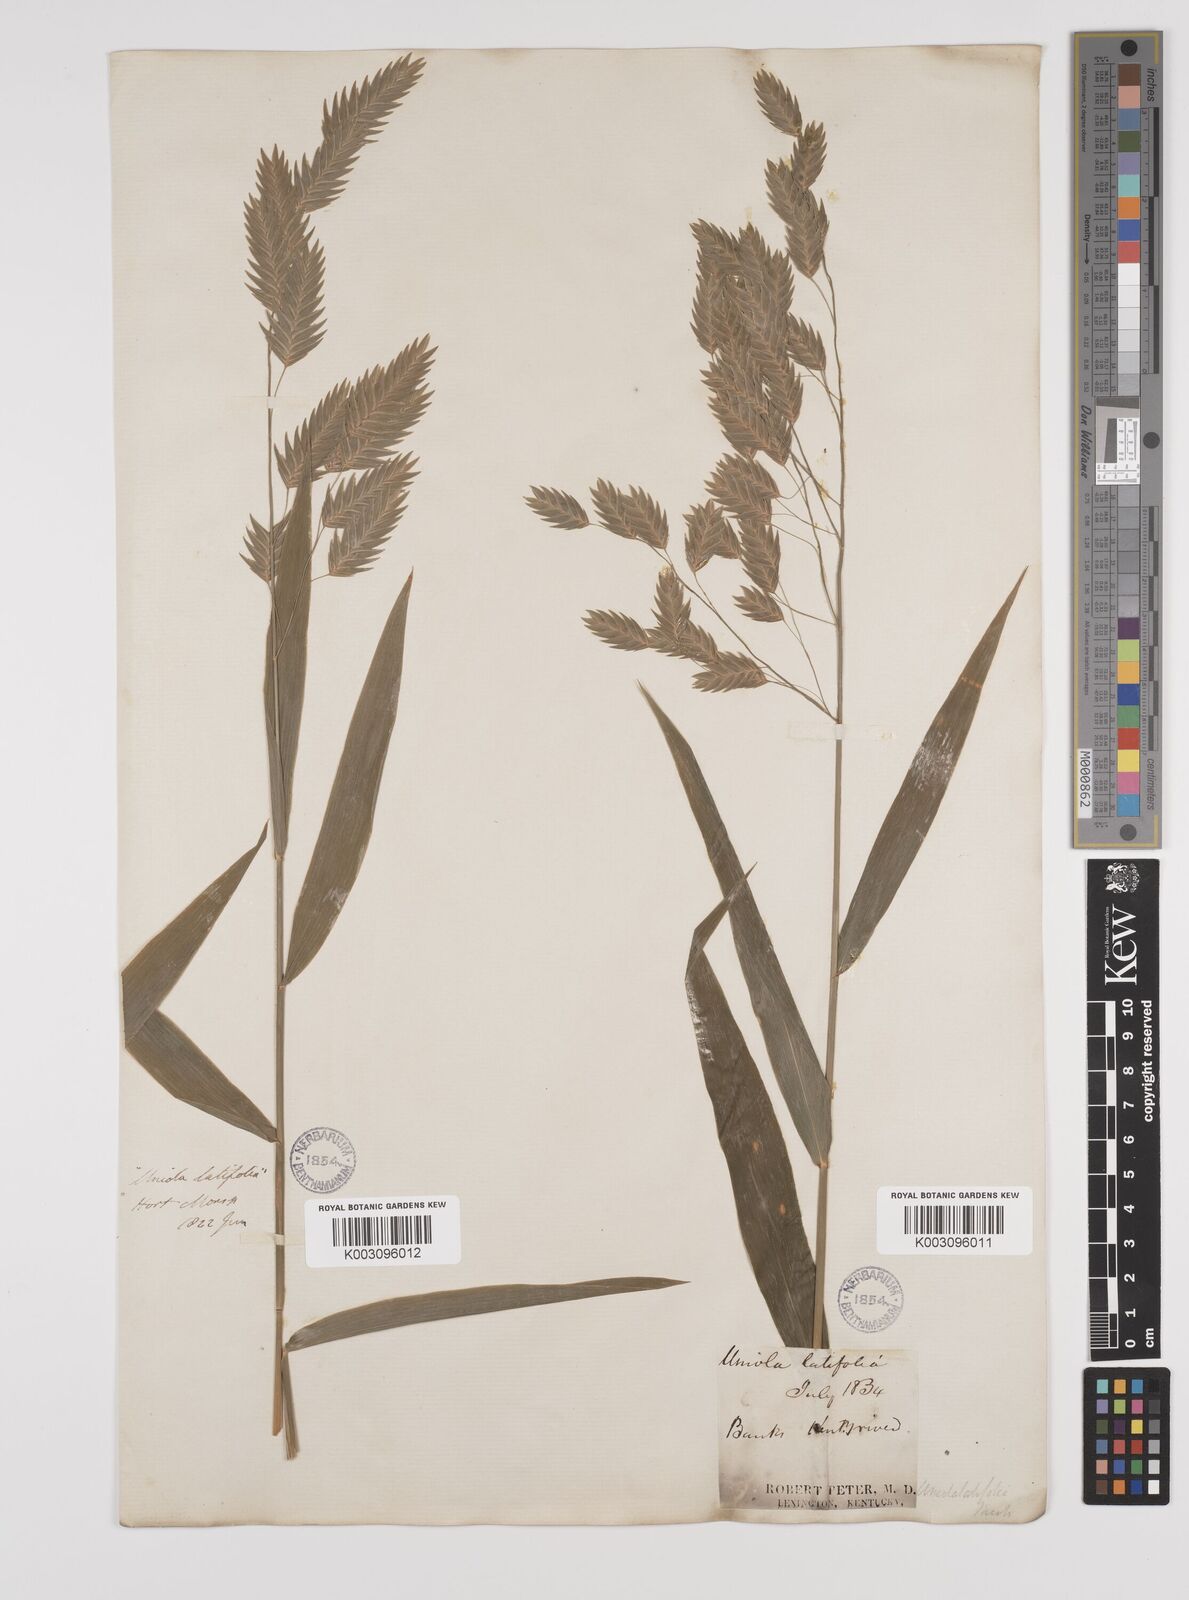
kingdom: Plantae
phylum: Tracheophyta
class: Liliopsida
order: Poales
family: Poaceae
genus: Chasmanthium
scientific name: Chasmanthium latifolium
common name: Broad-leaved chasmanthium
